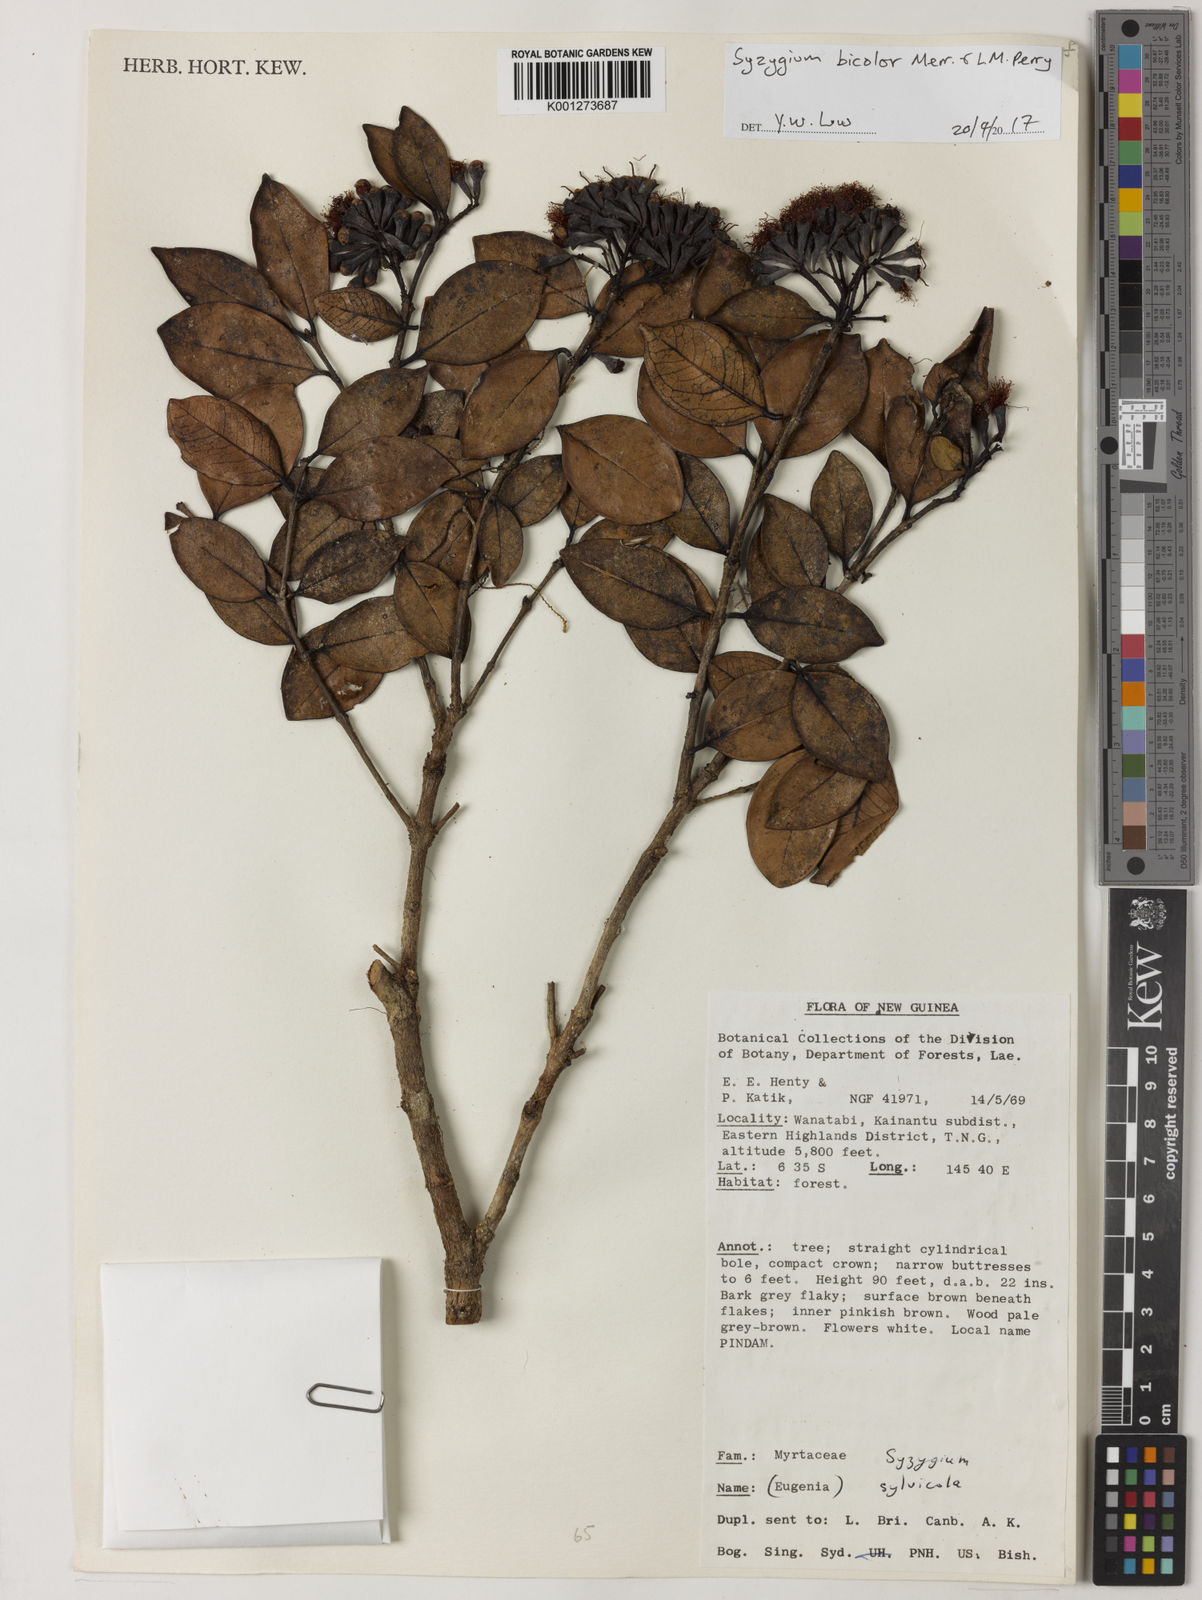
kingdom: Plantae
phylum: Tracheophyta
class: Magnoliopsida
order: Myrtales
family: Myrtaceae
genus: Syzygium
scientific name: Syzygium bicolor
